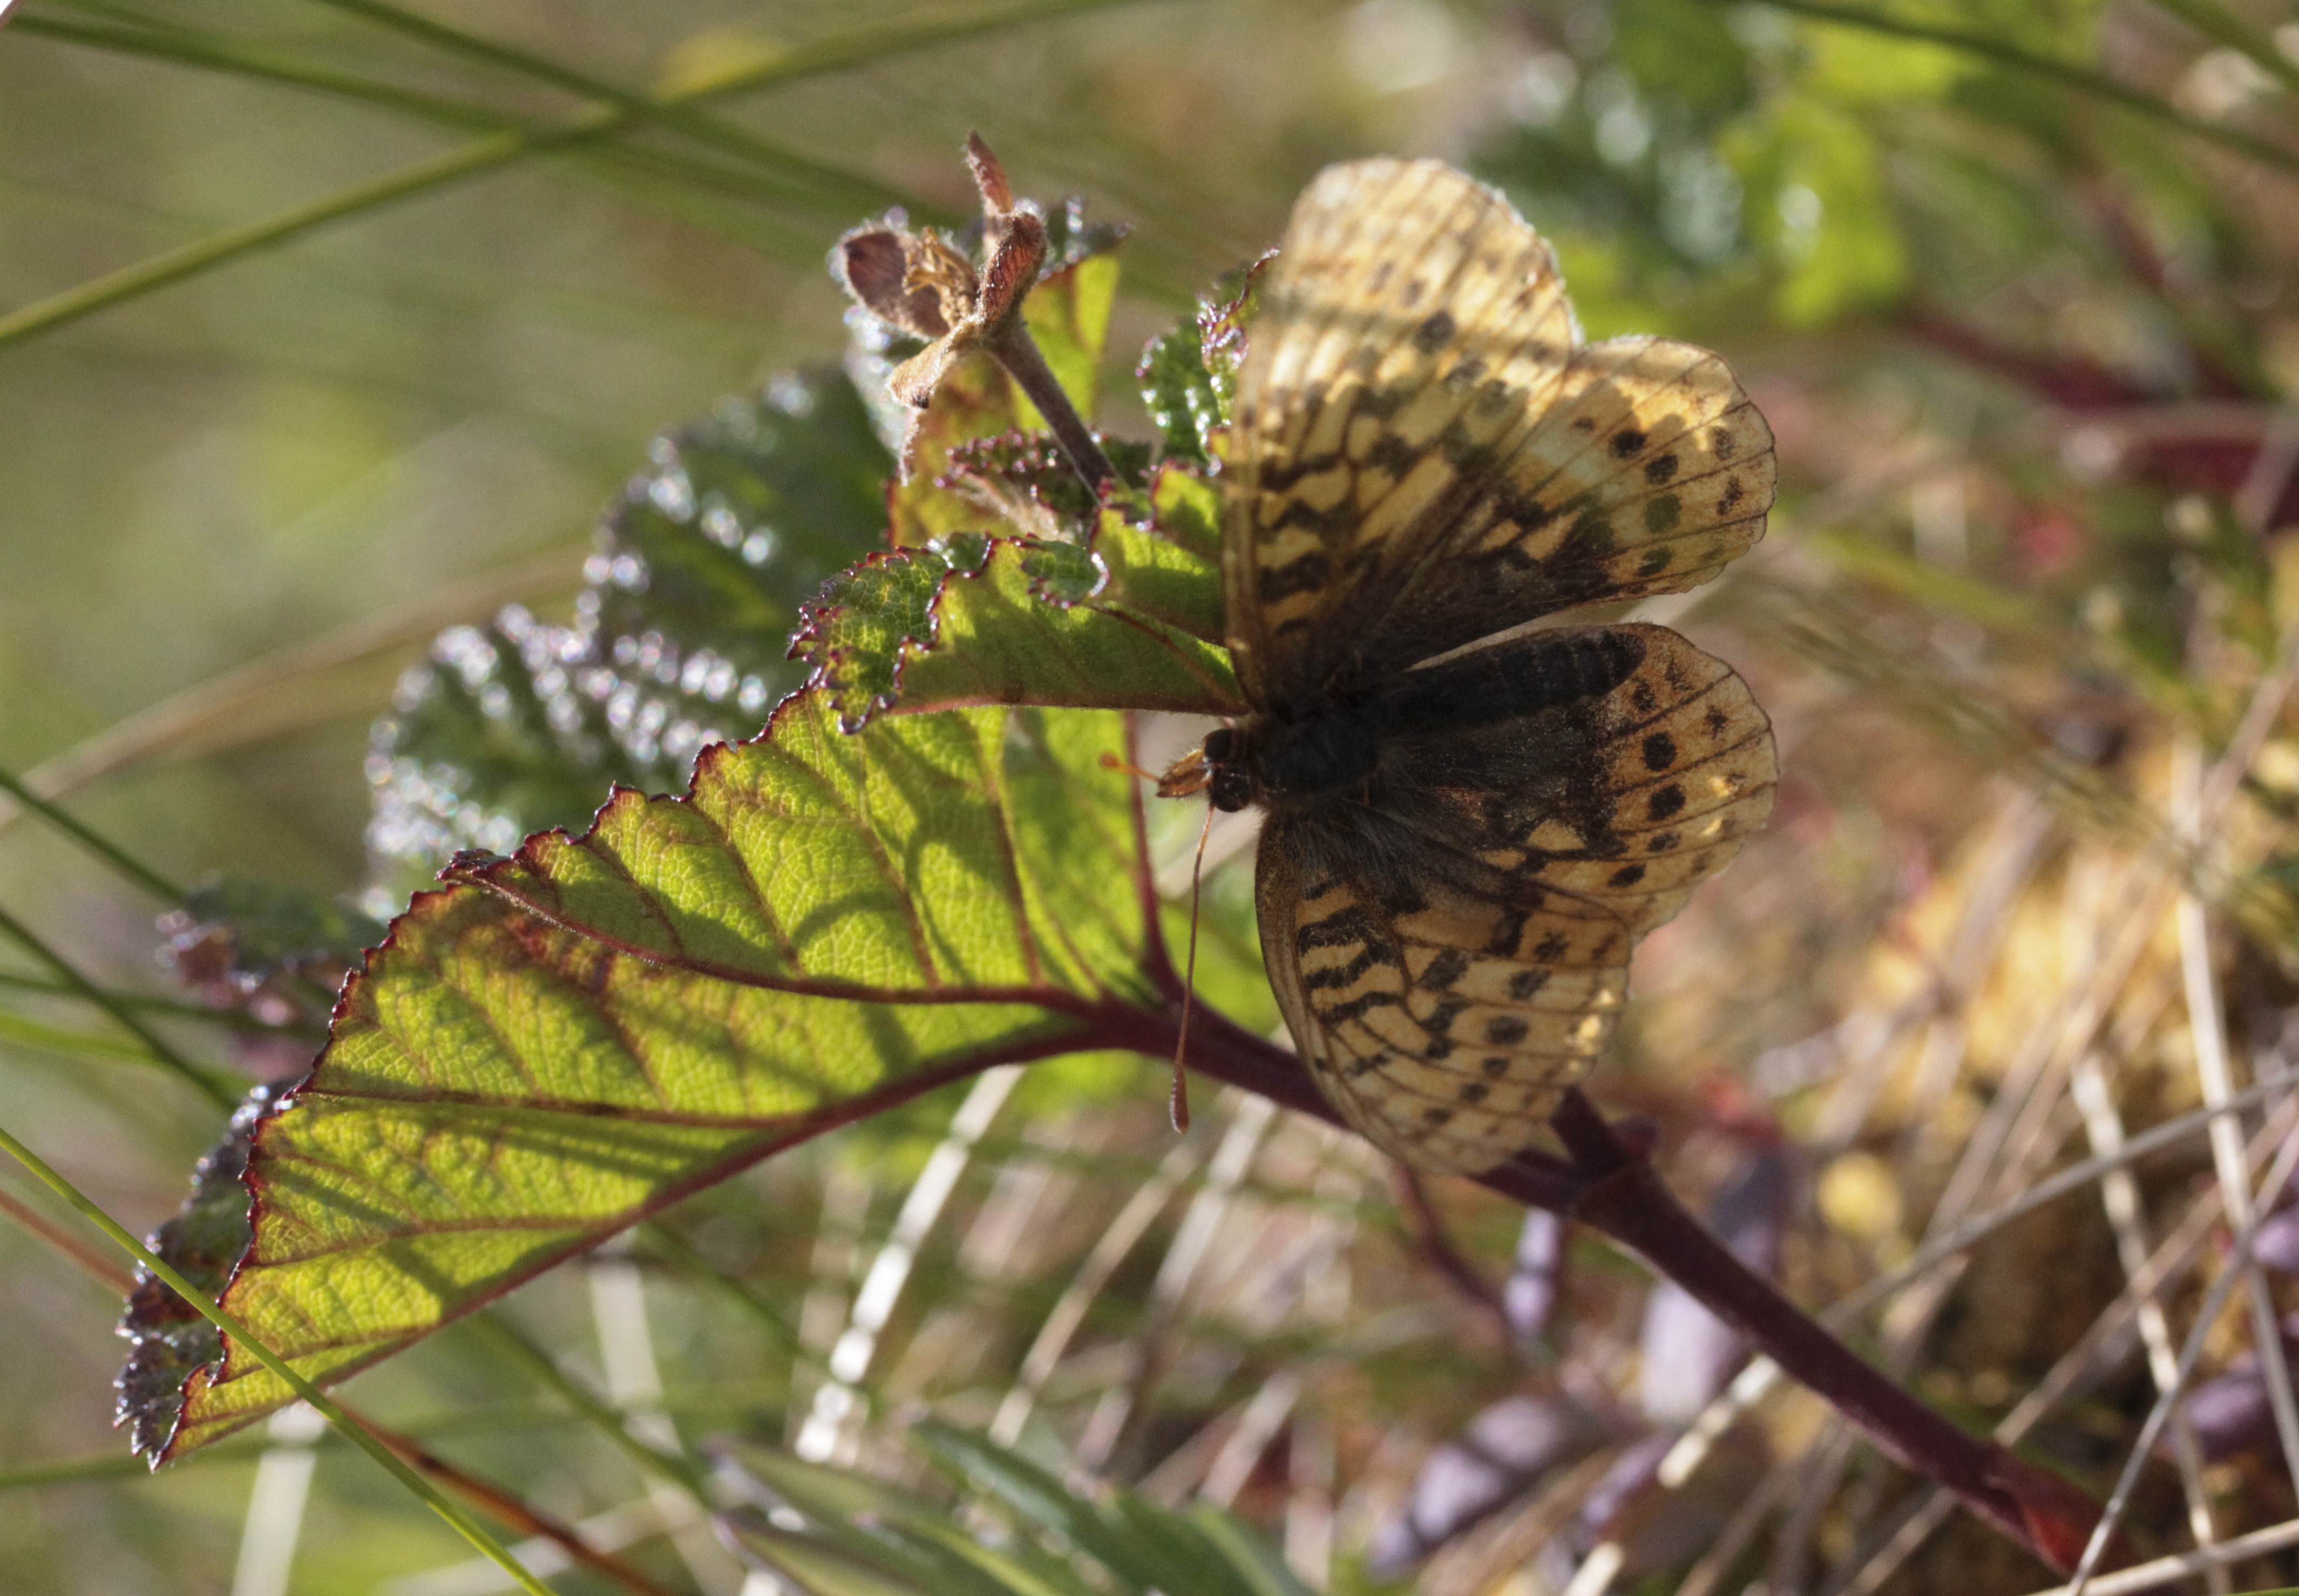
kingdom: Animalia
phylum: Arthropoda
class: Insecta
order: Lepidoptera
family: Nymphalidae
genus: Boloria
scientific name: Boloria frigga
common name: Frigga's fritillary
